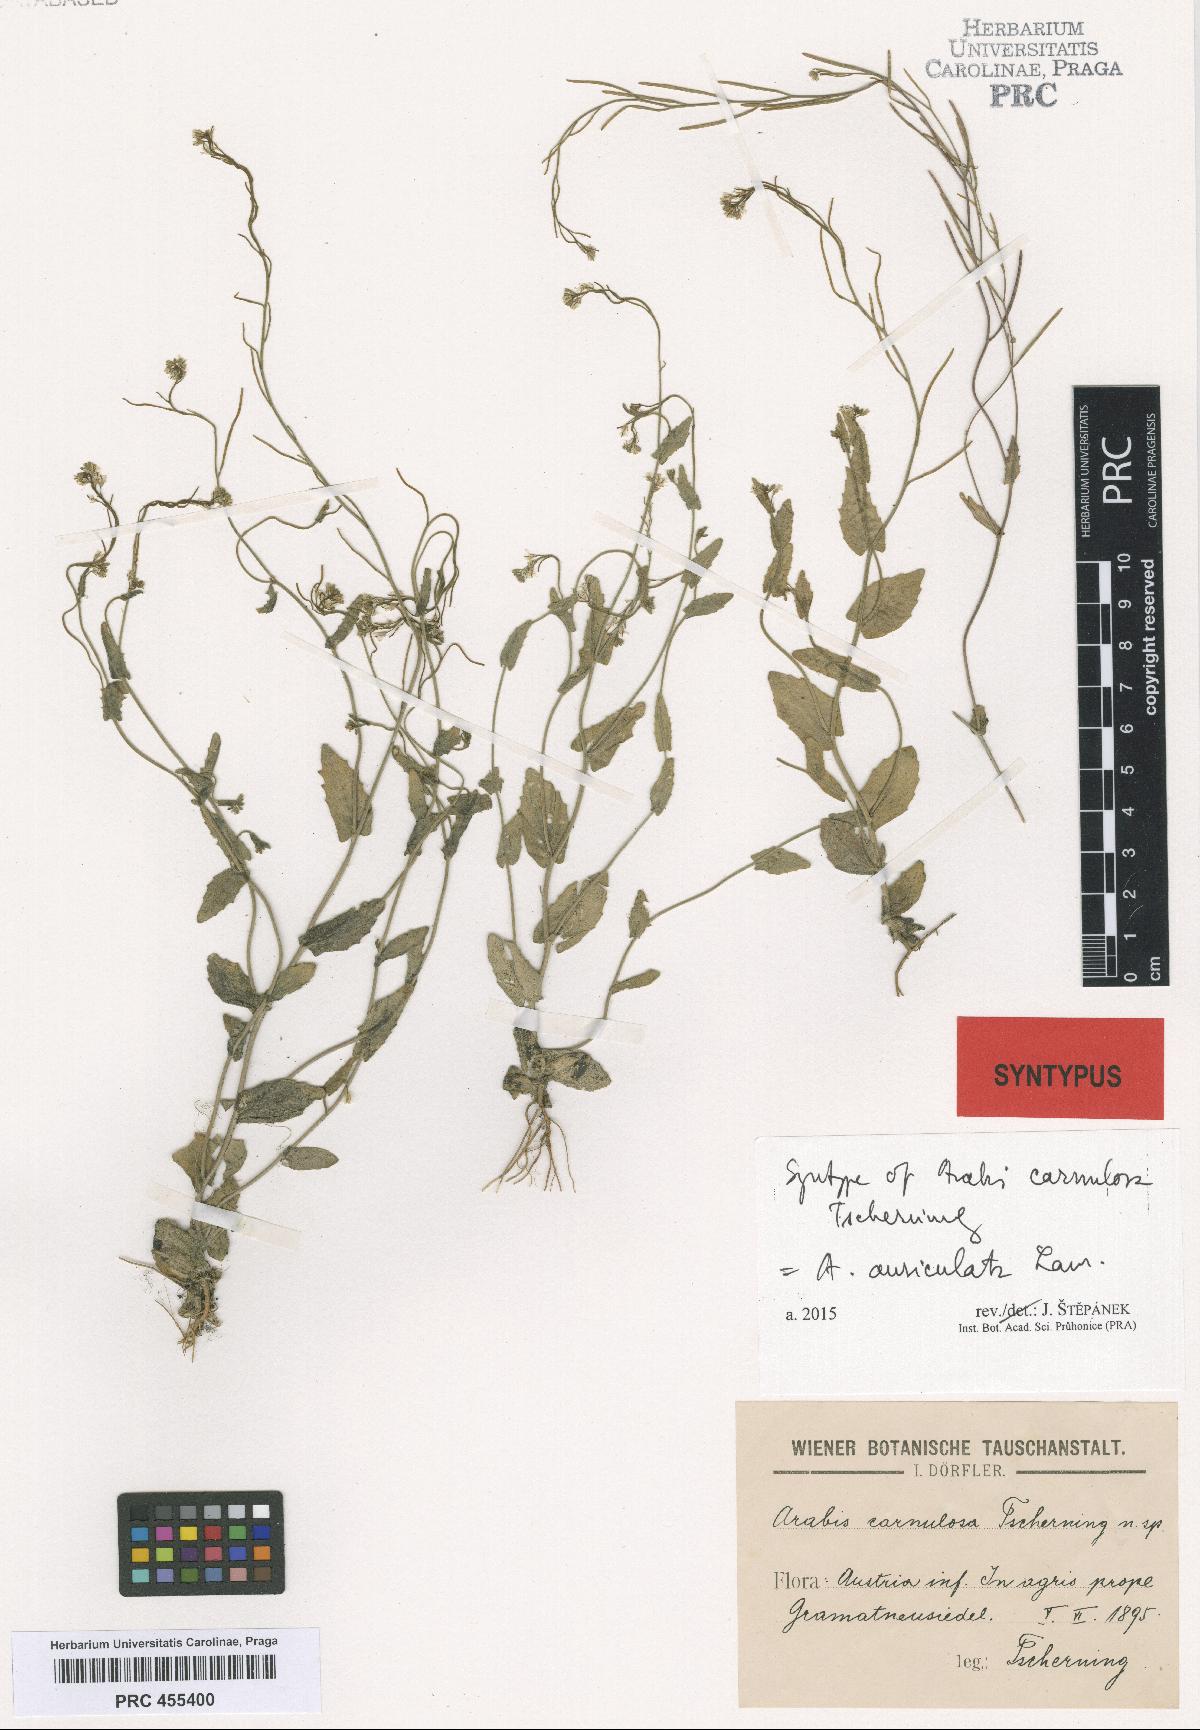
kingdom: Plantae
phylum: Tracheophyta
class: Magnoliopsida
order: Brassicales
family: Brassicaceae
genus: Arabis
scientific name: Arabis auriculata
